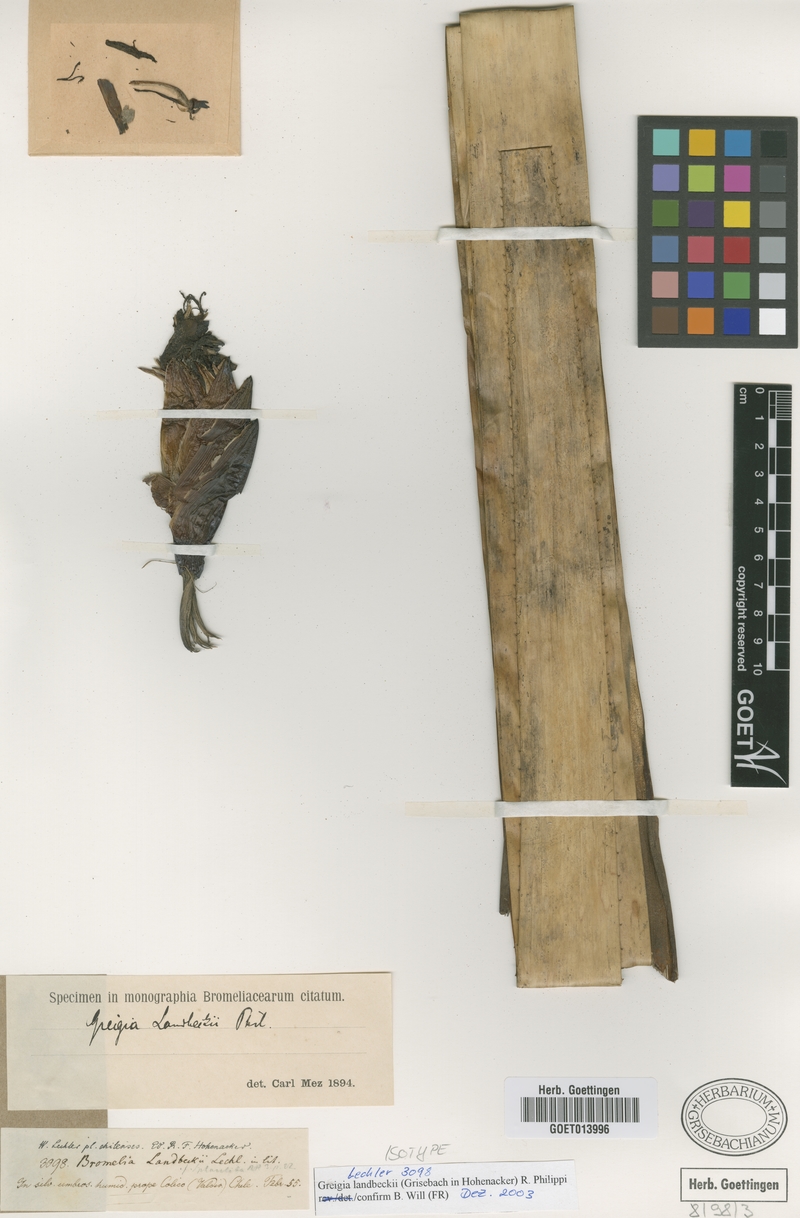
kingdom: Plantae
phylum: Tracheophyta
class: Liliopsida
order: Poales
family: Bromeliaceae
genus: Greigia
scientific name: Greigia landbeckii
